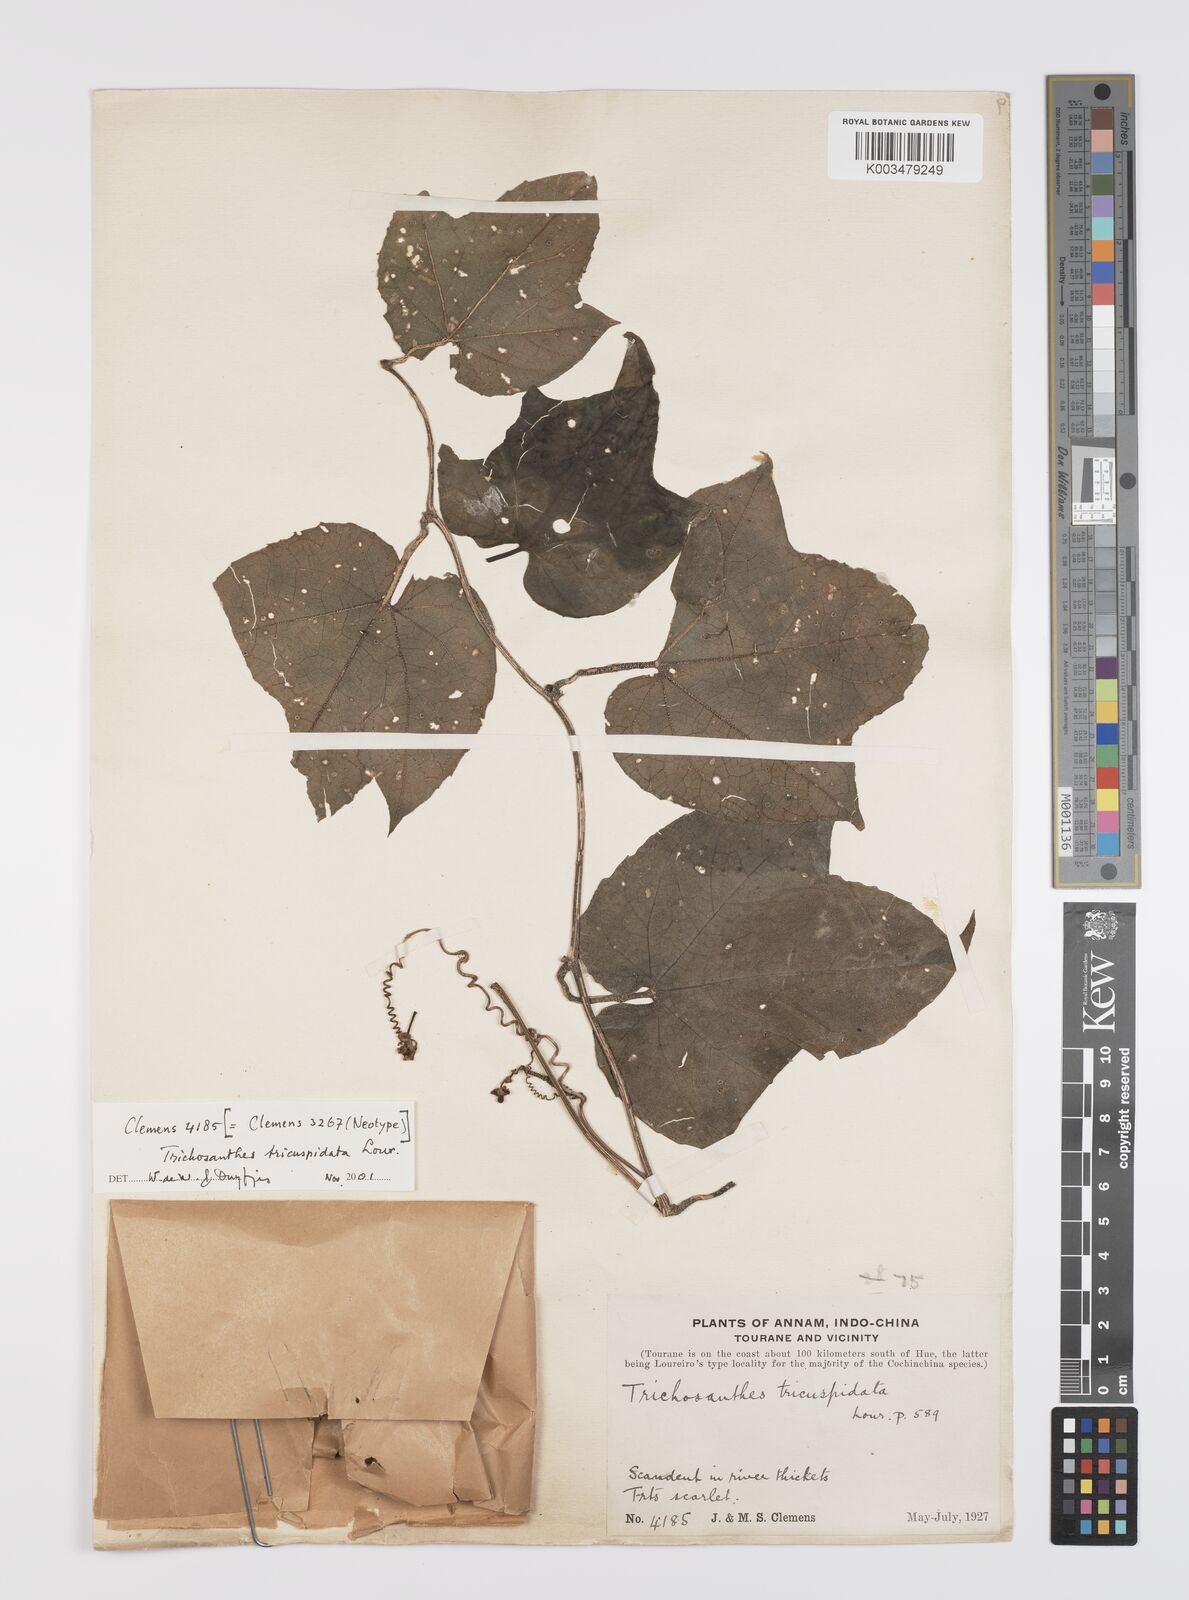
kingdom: Plantae
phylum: Tracheophyta
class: Magnoliopsida
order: Cucurbitales
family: Cucurbitaceae
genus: Trichosanthes
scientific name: Trichosanthes tricuspidata
